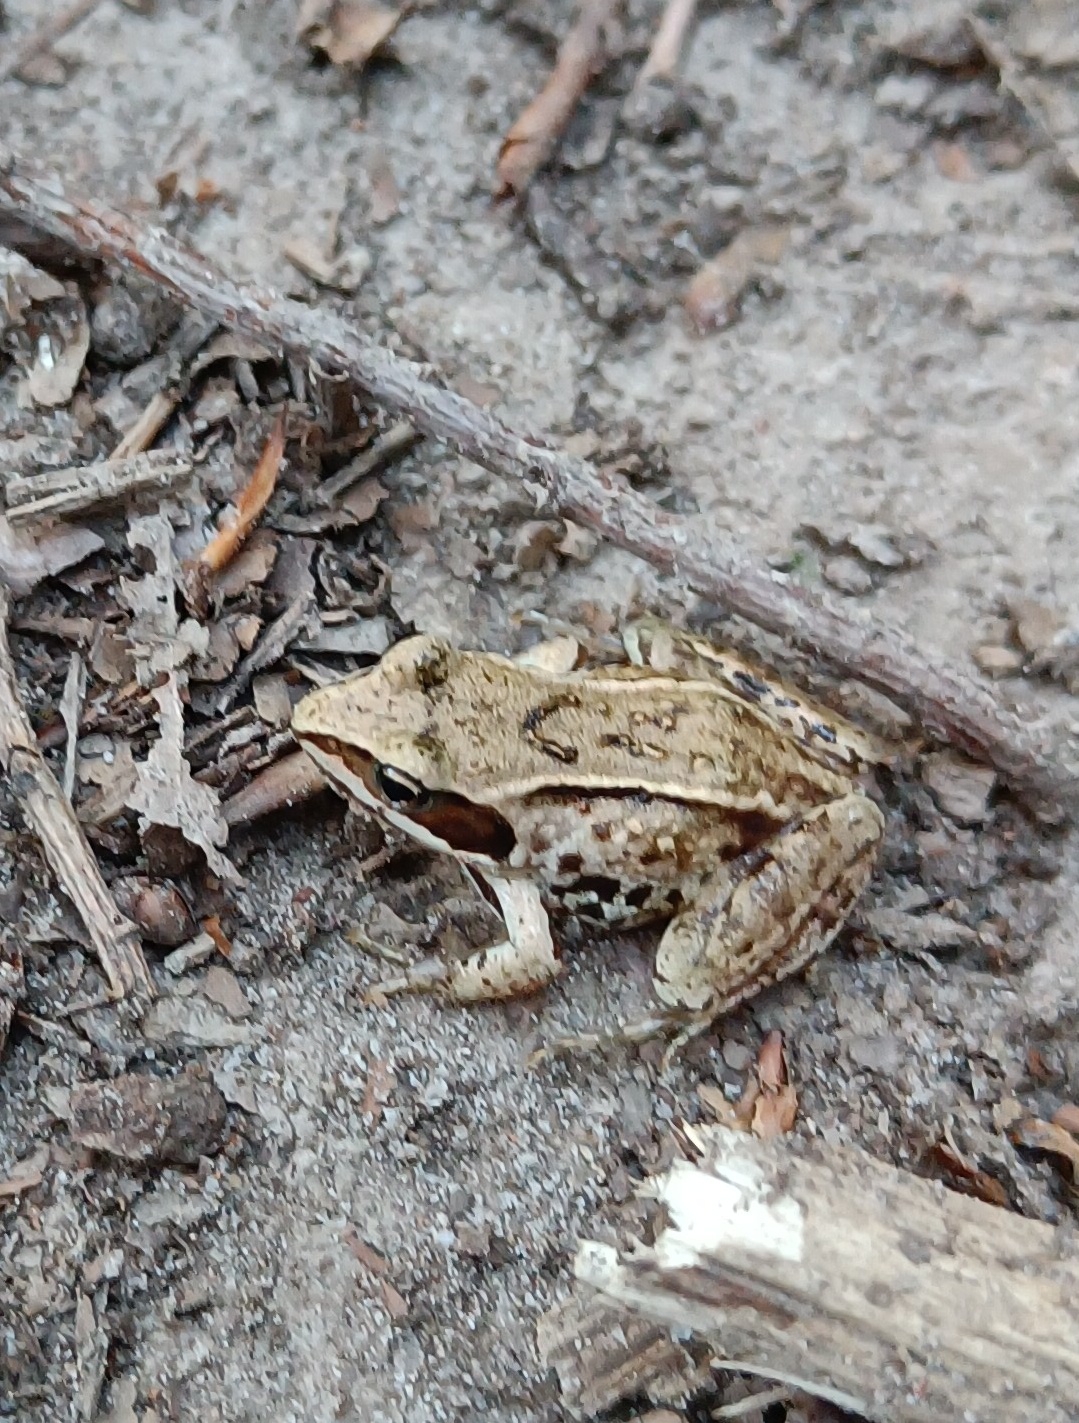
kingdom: Animalia
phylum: Chordata
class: Amphibia
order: Anura
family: Ranidae
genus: Rana
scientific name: Rana arvalis
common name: Spidssnudet frø
